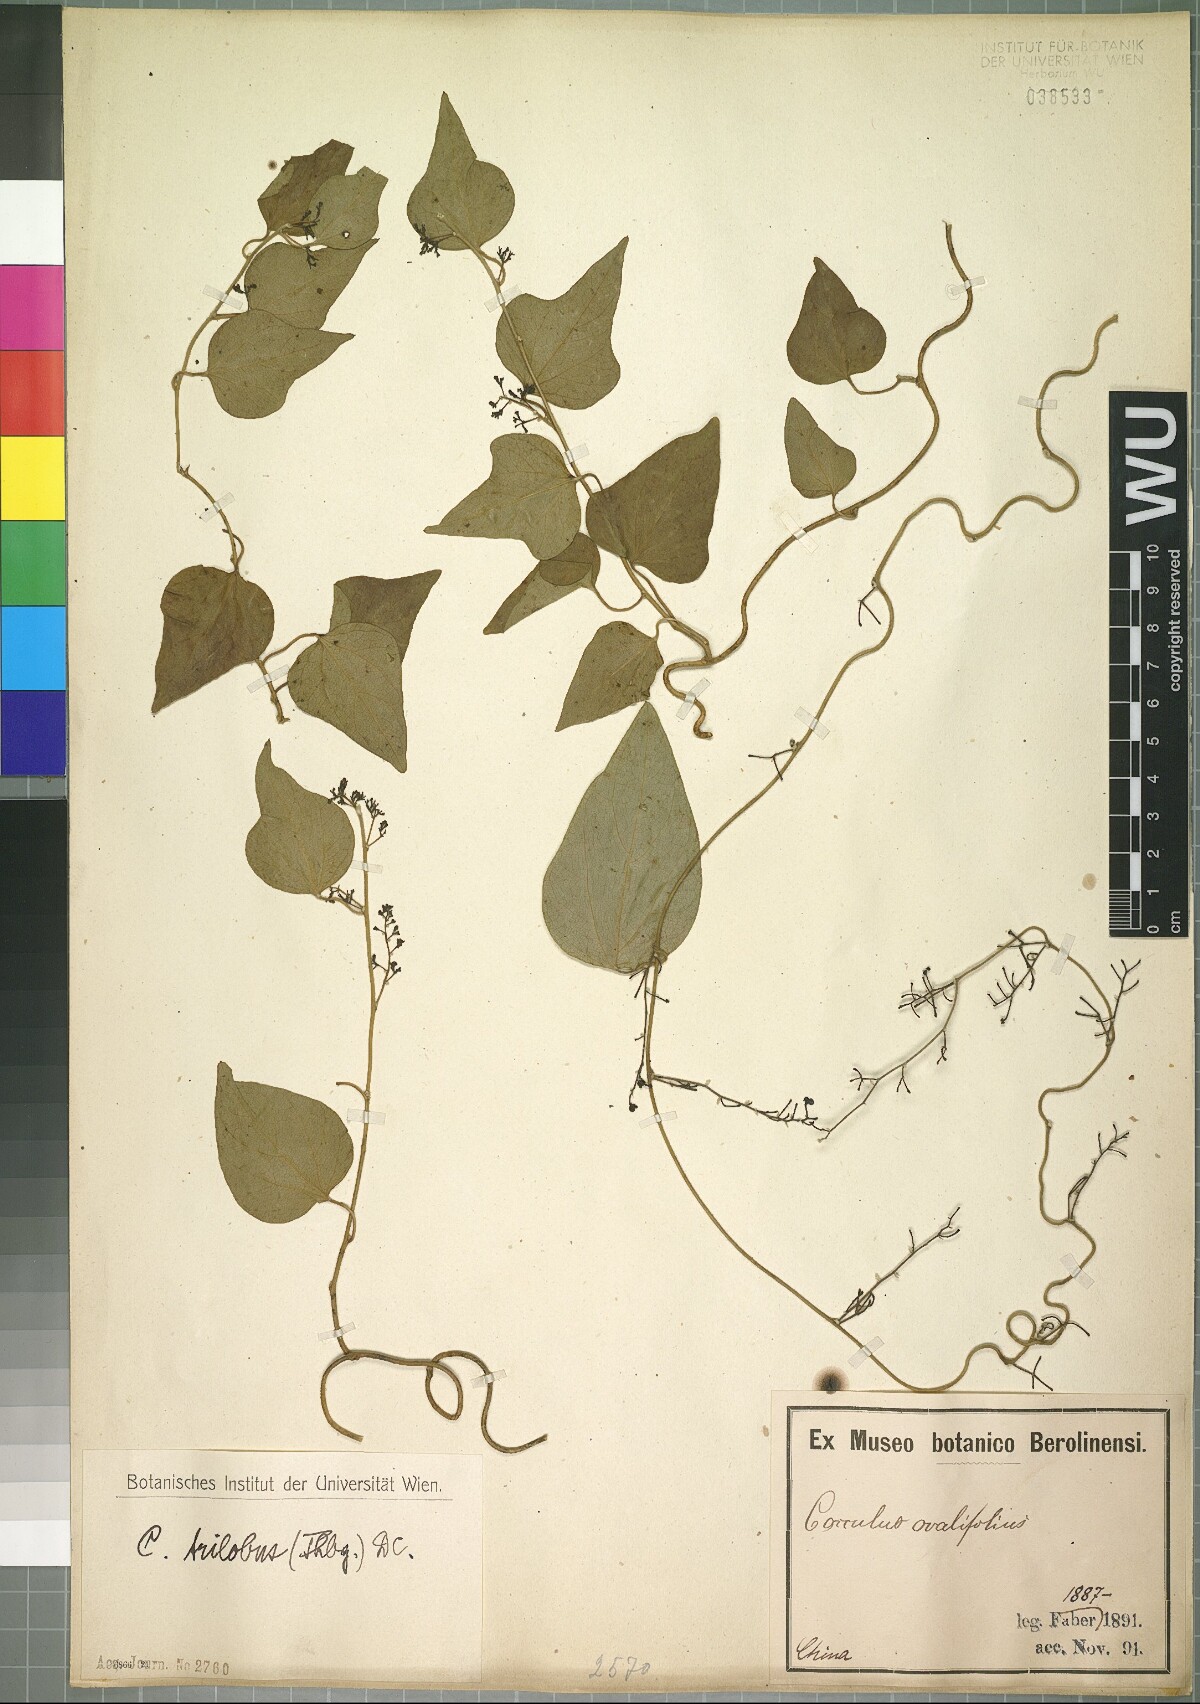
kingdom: Plantae
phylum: Tracheophyta
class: Magnoliopsida
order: Ranunculales
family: Menispermaceae
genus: Cocculus
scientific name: Cocculus orbiculatus
